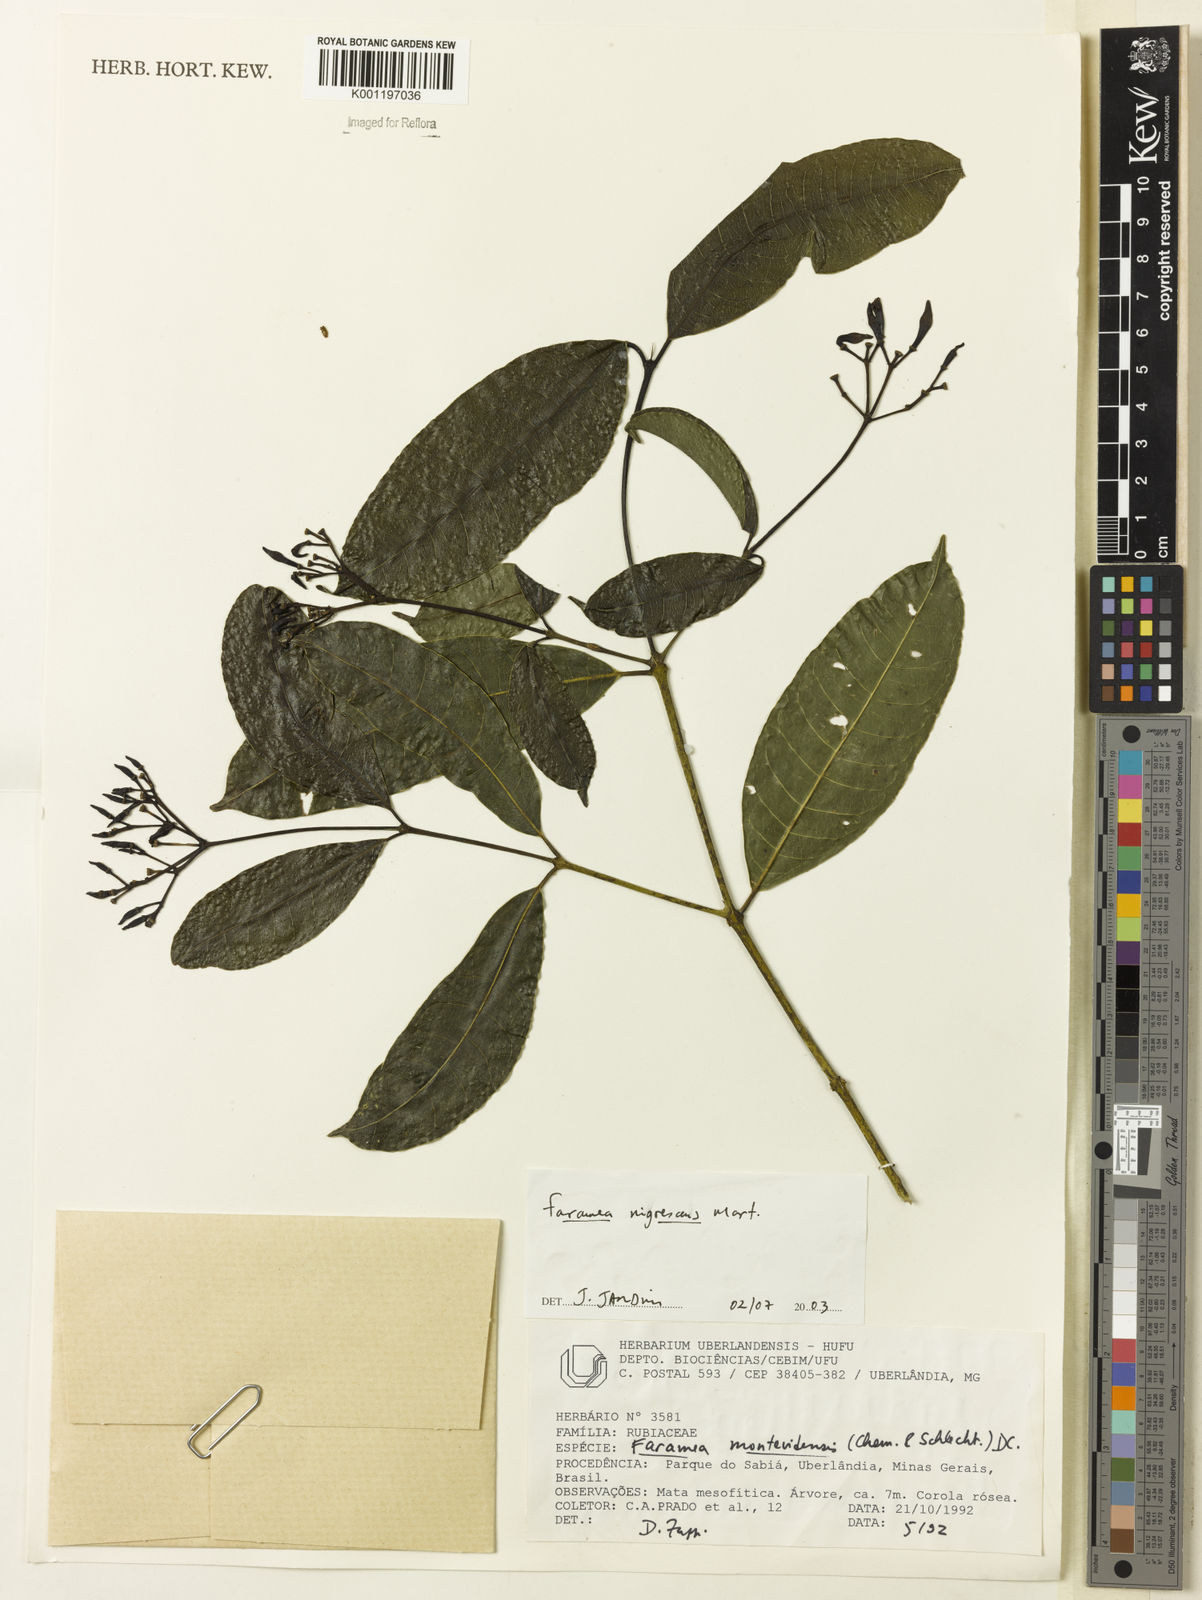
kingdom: Plantae
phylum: Tracheophyta
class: Magnoliopsida
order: Gentianales
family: Rubiaceae
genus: Faramea
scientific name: Faramea nigrescens
